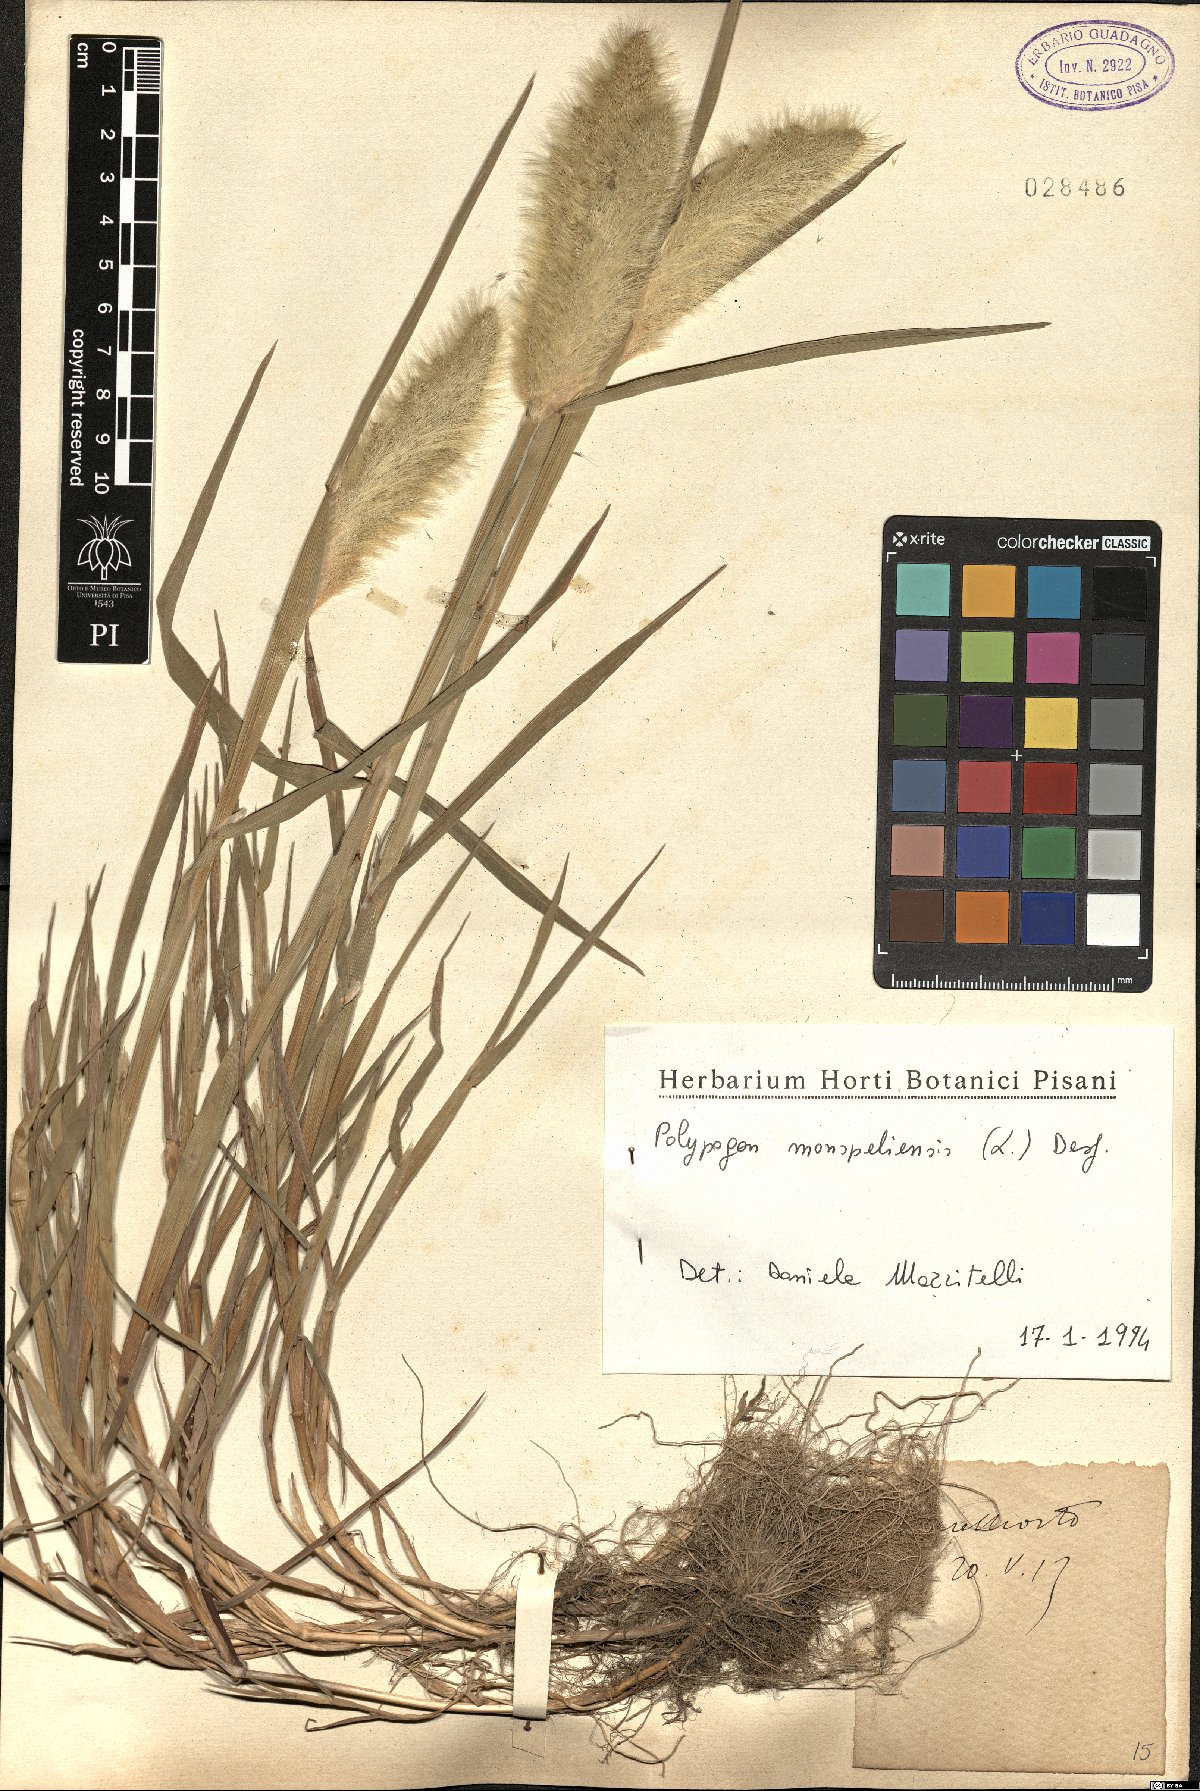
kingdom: Plantae
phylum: Tracheophyta
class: Liliopsida
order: Poales
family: Poaceae
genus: Polypogon
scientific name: Polypogon monspeliensis
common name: Annual rabbitsfoot grass
